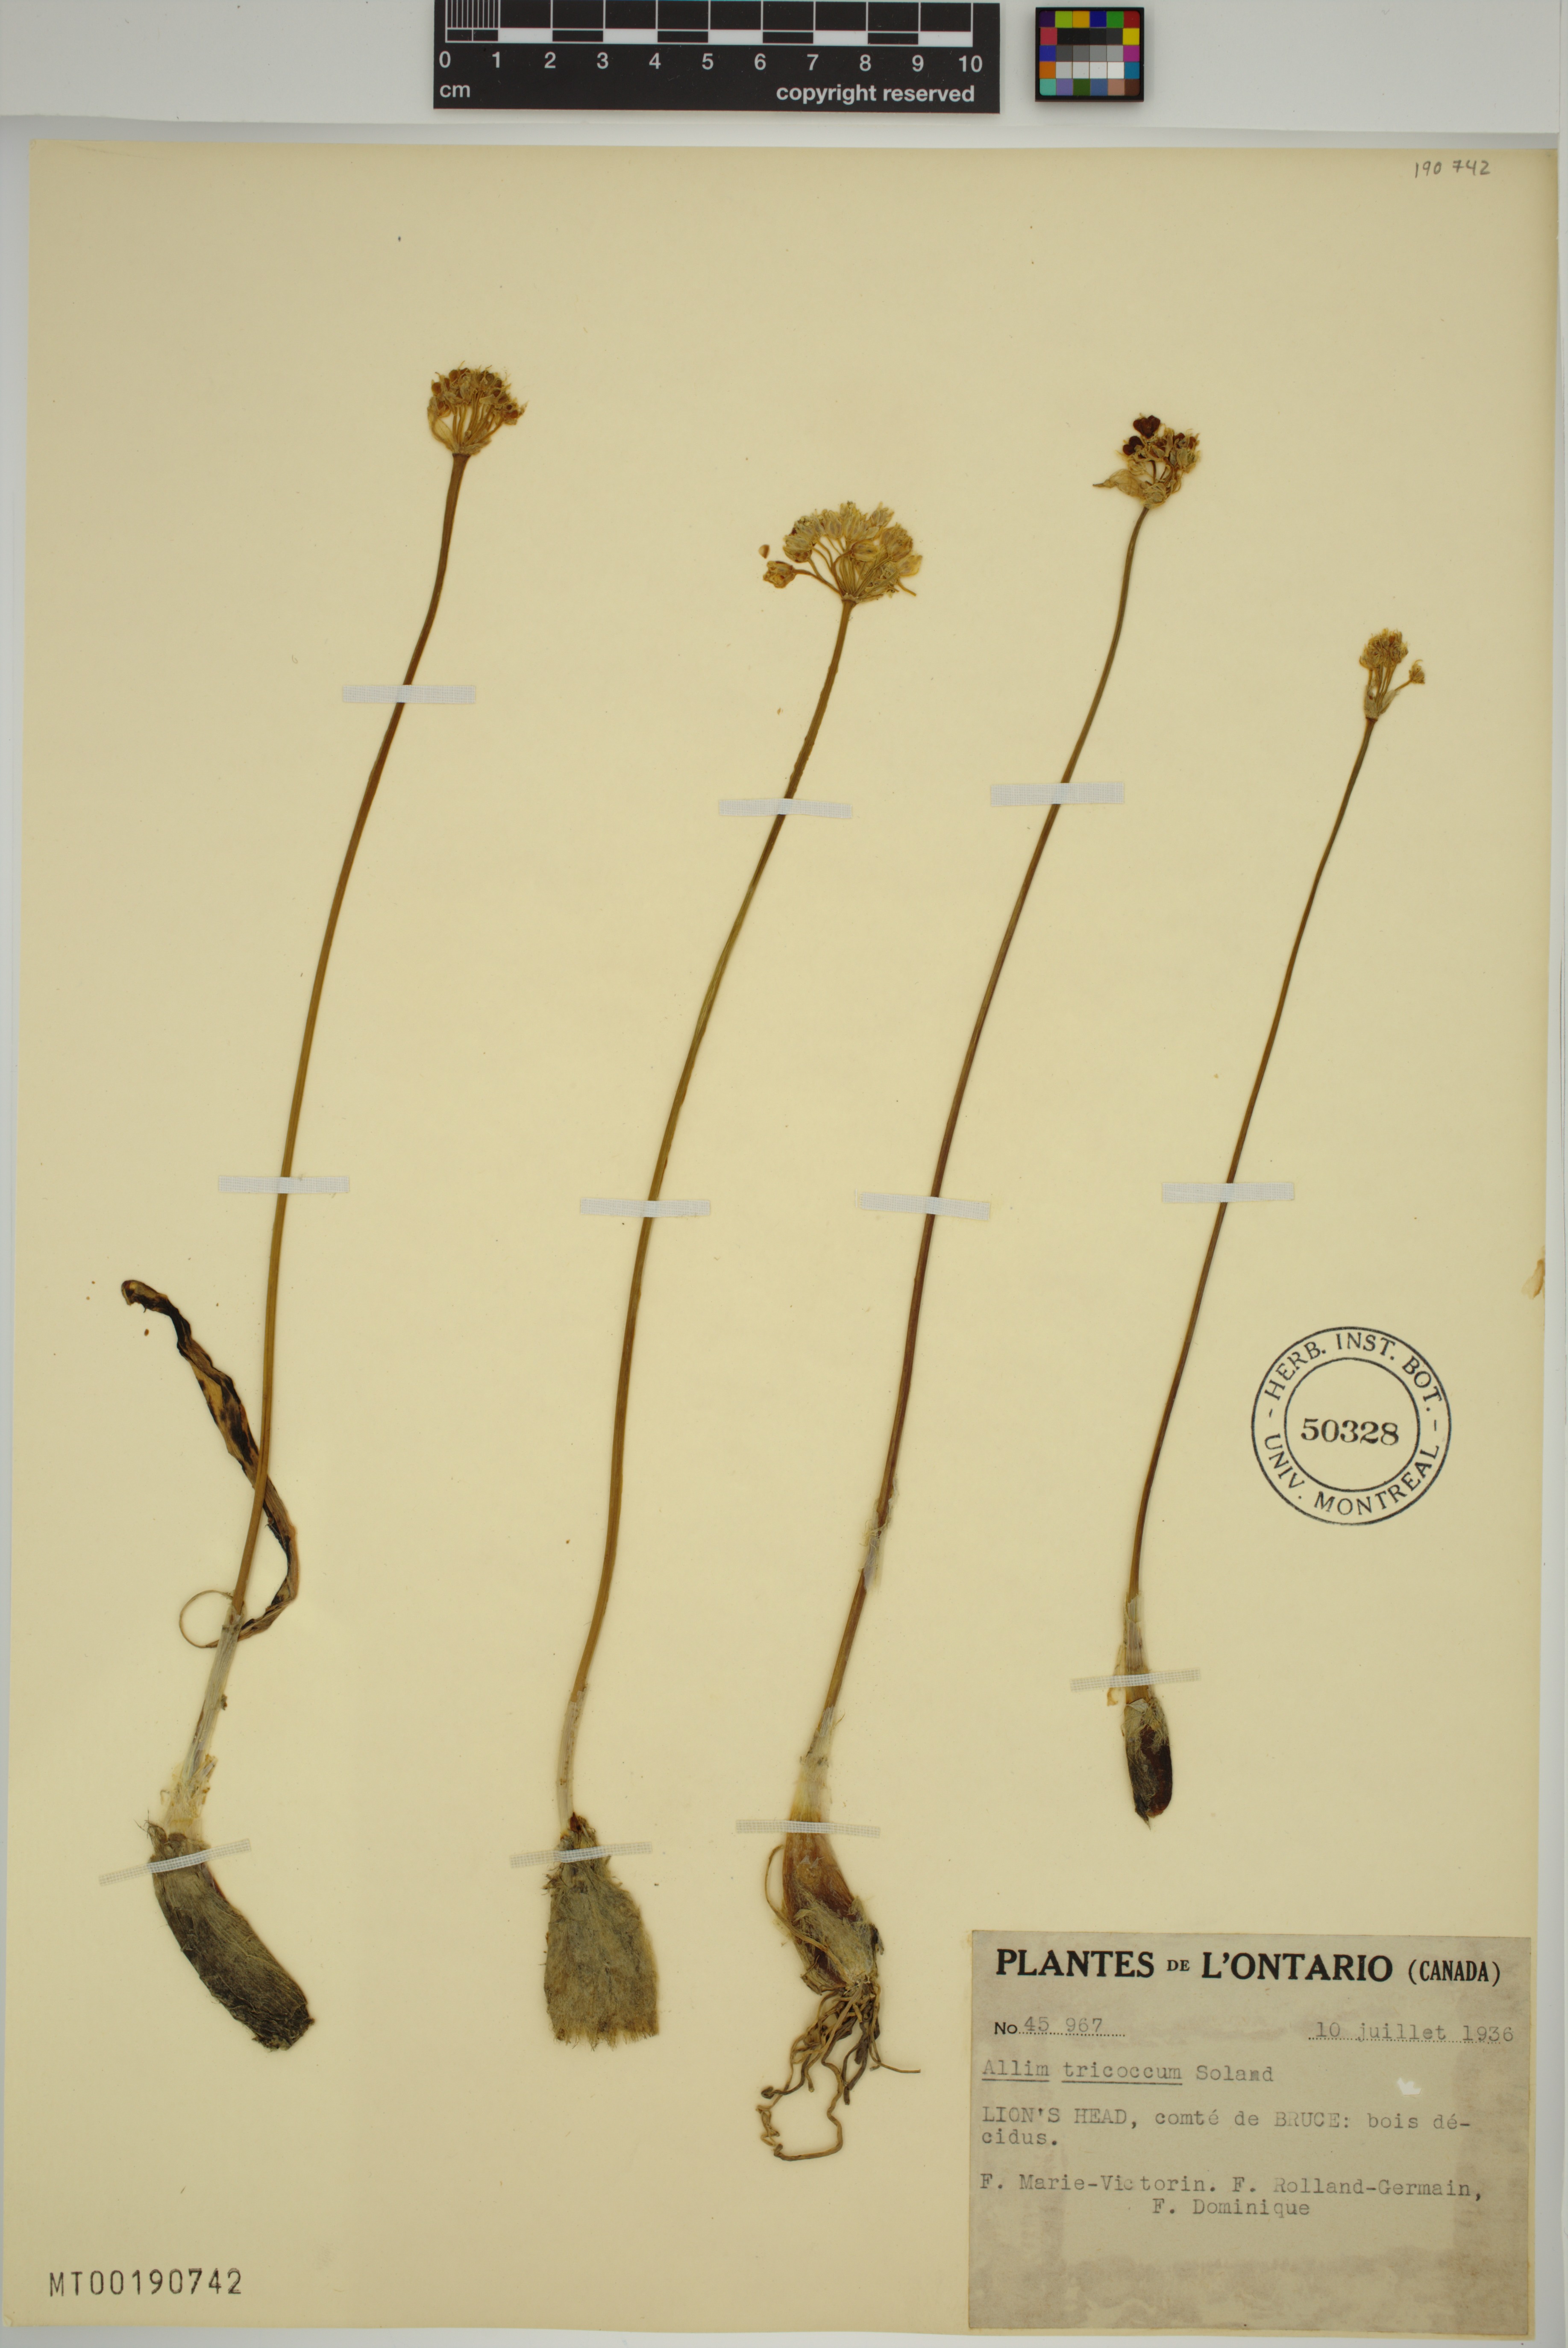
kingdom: Plantae
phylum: Tracheophyta
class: Liliopsida
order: Asparagales
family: Amaryllidaceae
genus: Allium
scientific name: Allium tricoccum
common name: Ramp
